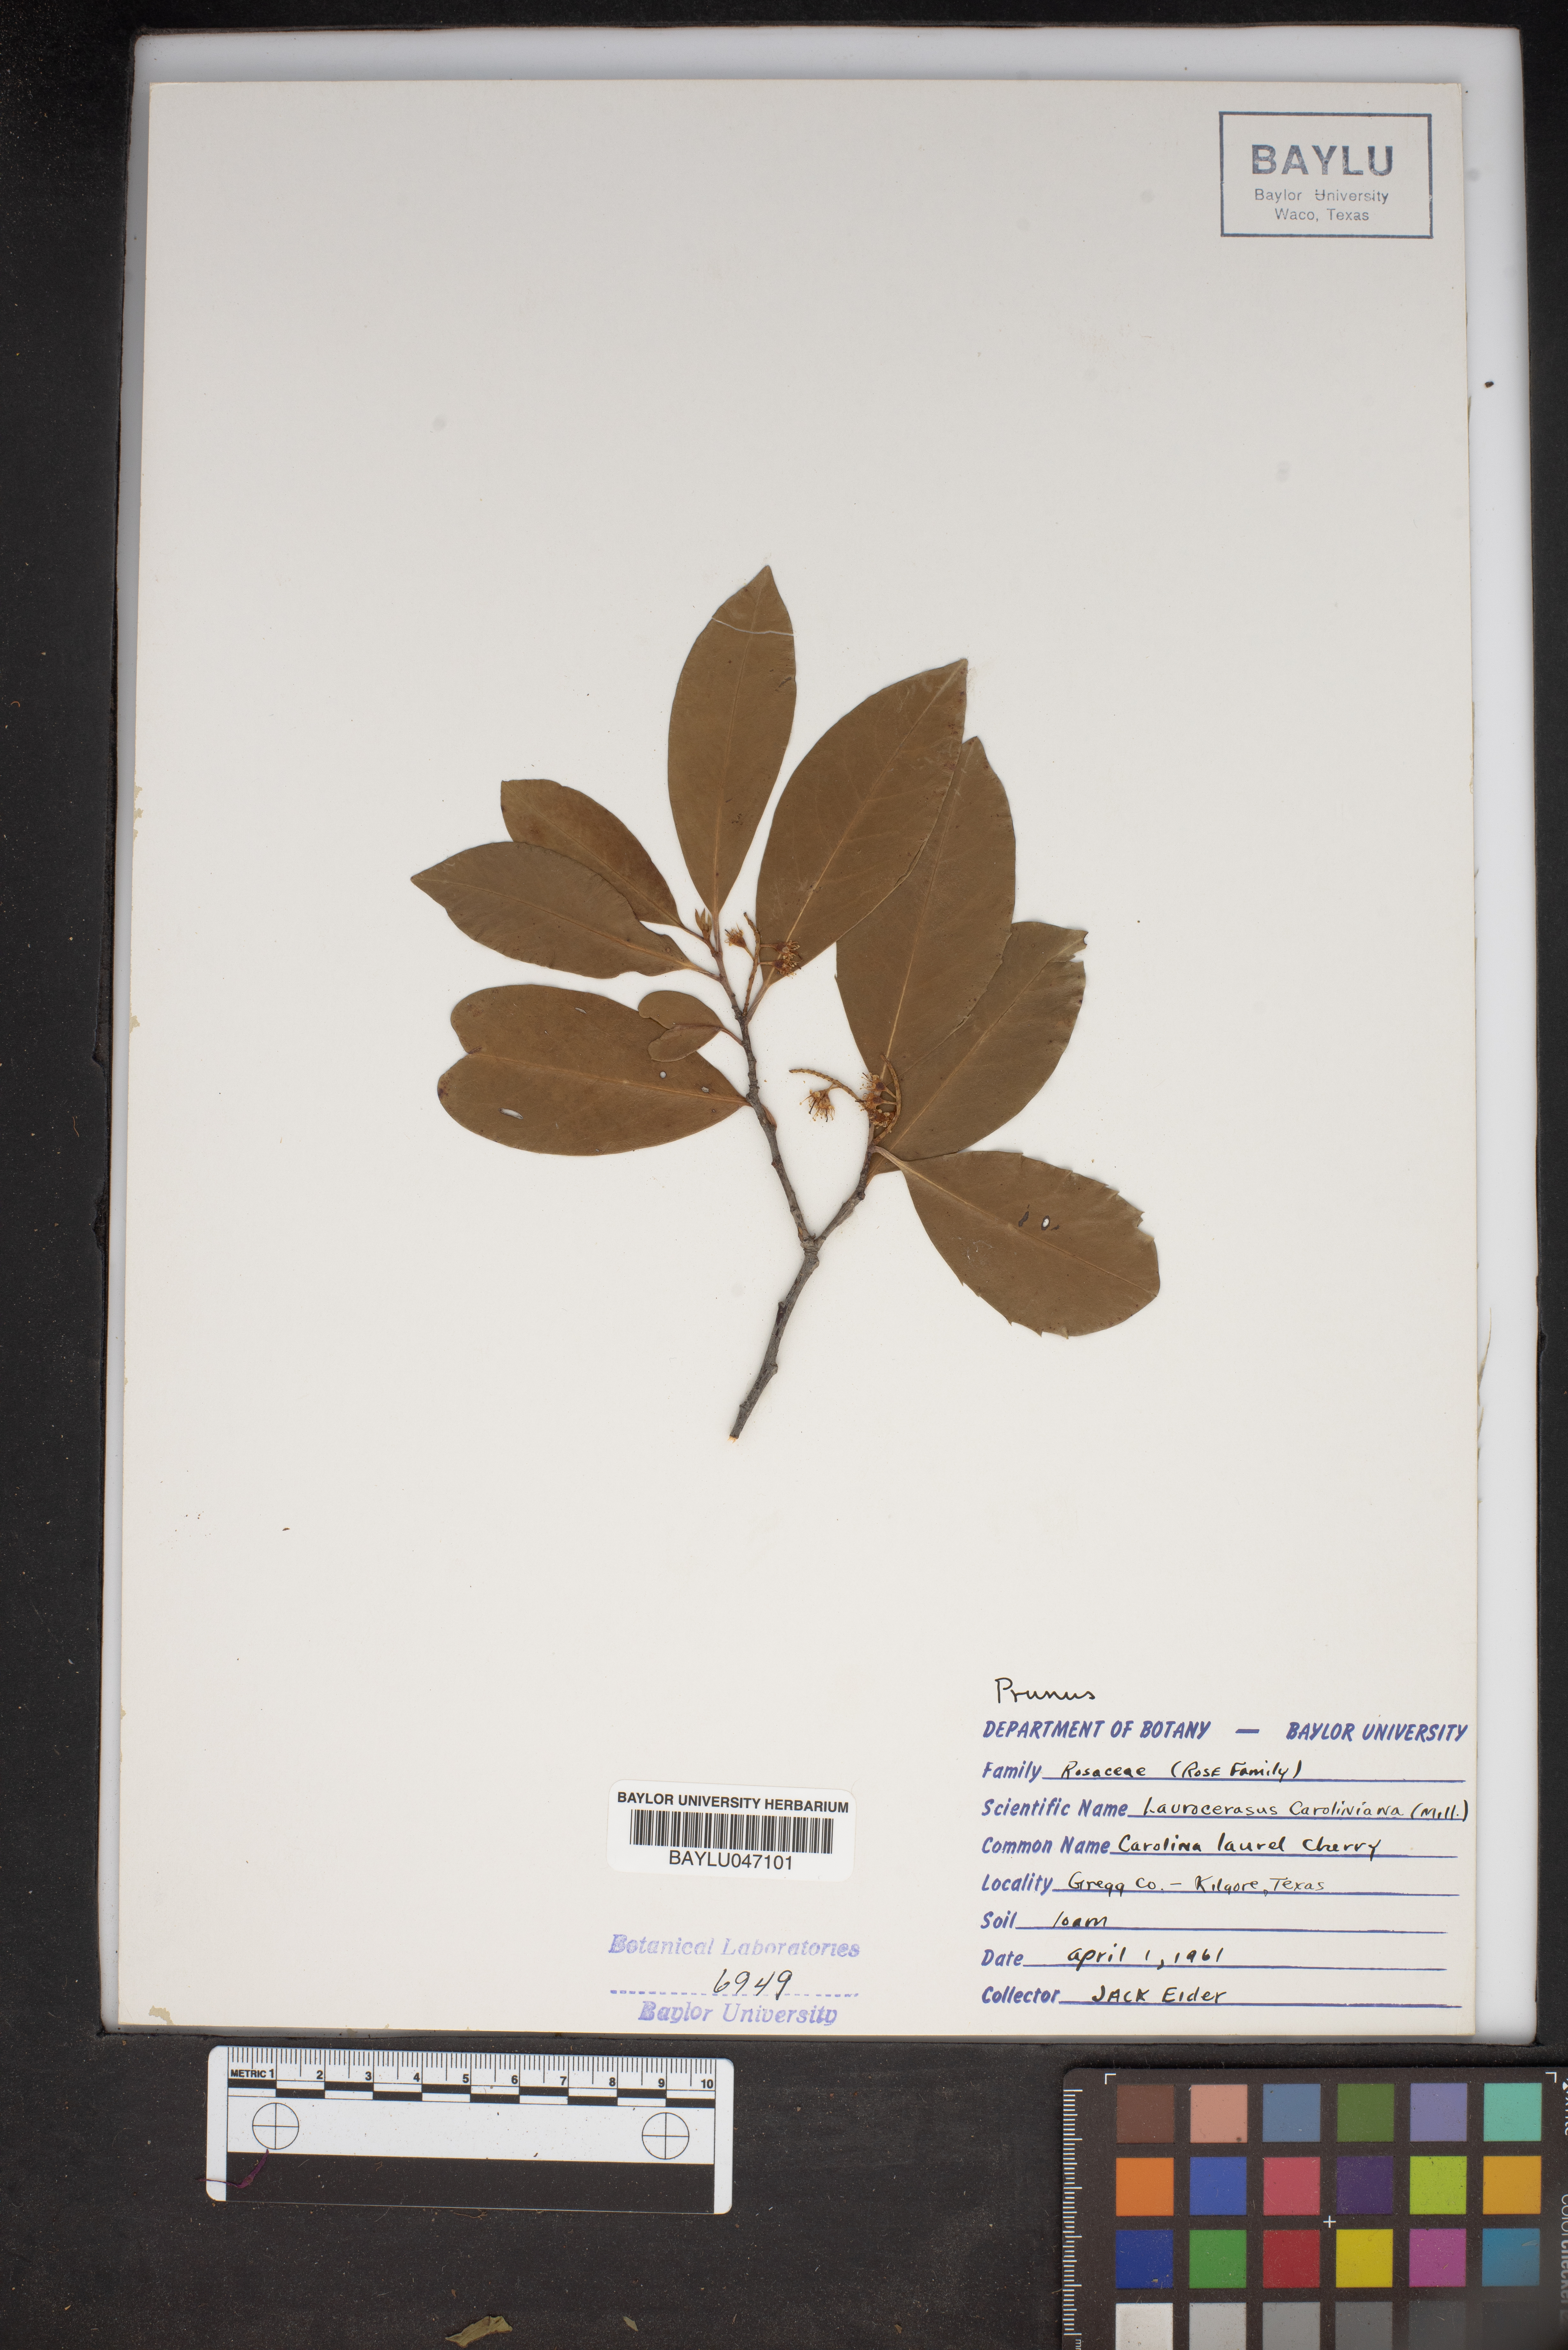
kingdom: Plantae
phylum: Tracheophyta
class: Magnoliopsida
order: Rosales
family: Rosaceae
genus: Prunus
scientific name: Prunus caroliniana
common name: Carolina laurel cherry
